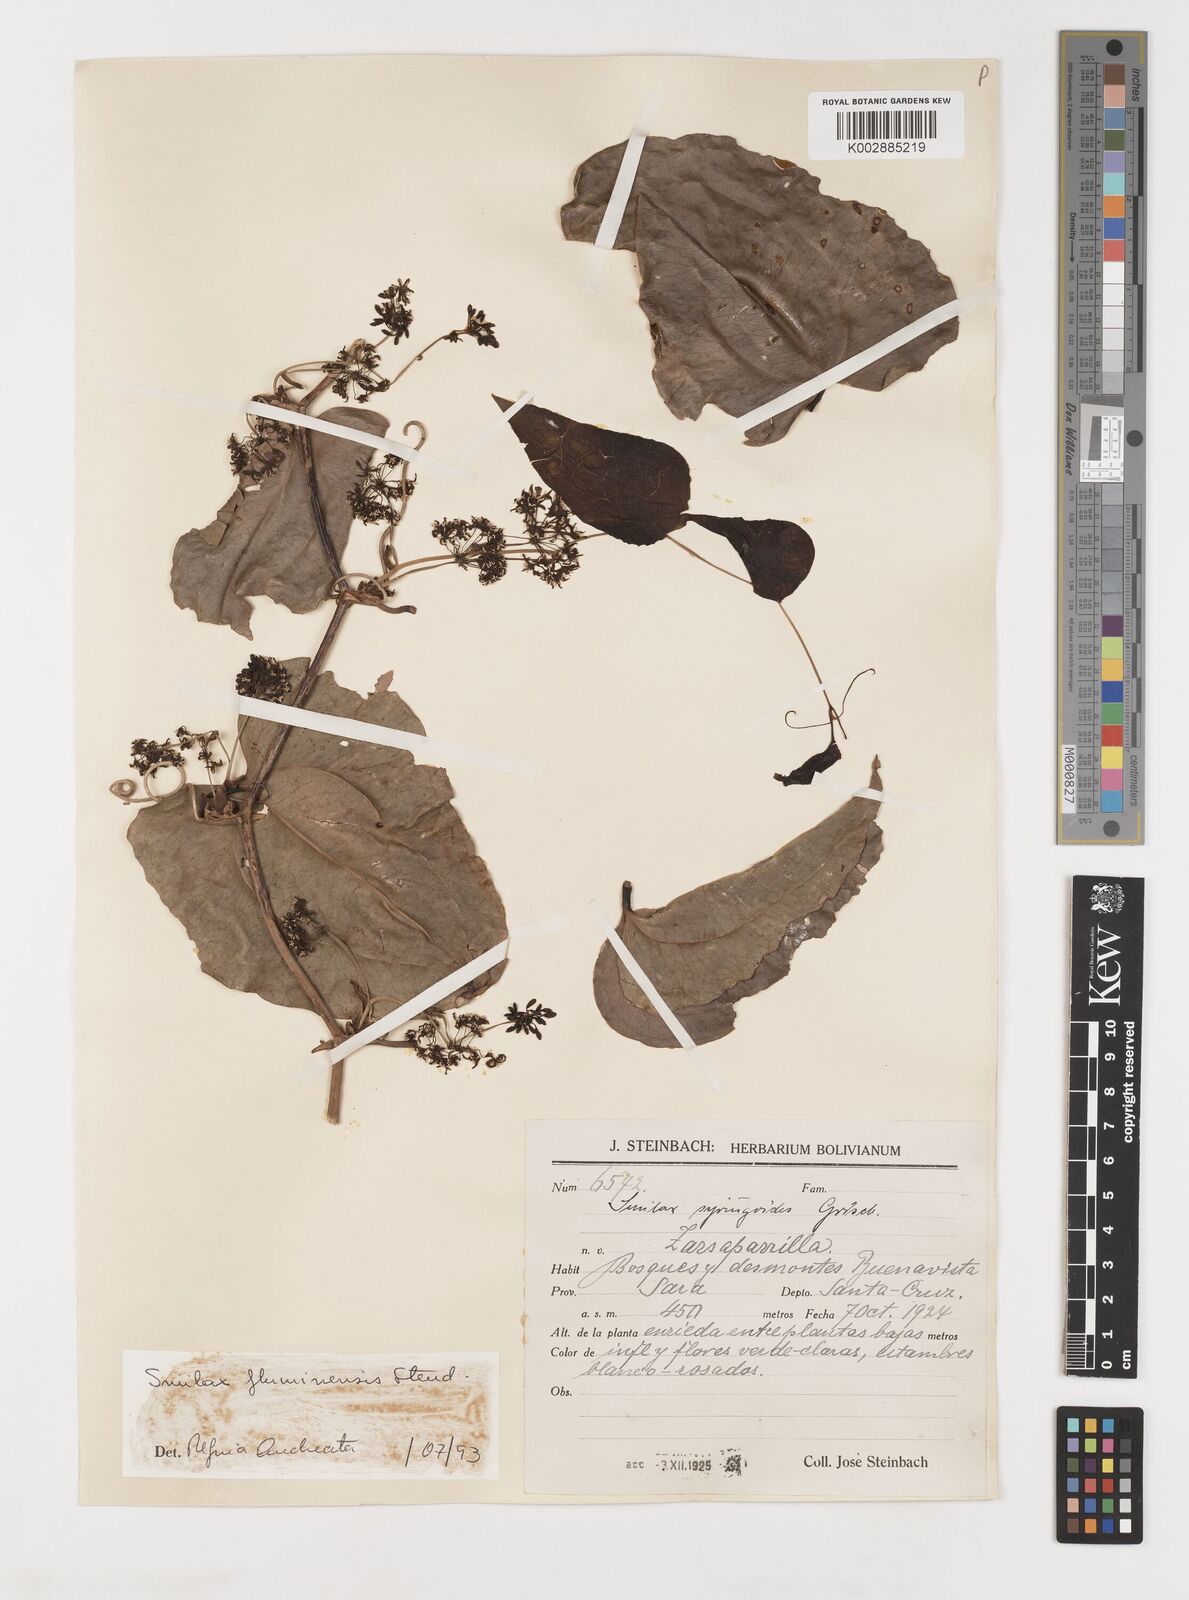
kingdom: Plantae
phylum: Tracheophyta
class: Liliopsida
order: Liliales
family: Smilacaceae
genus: Smilax
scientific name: Smilax fluminensis
